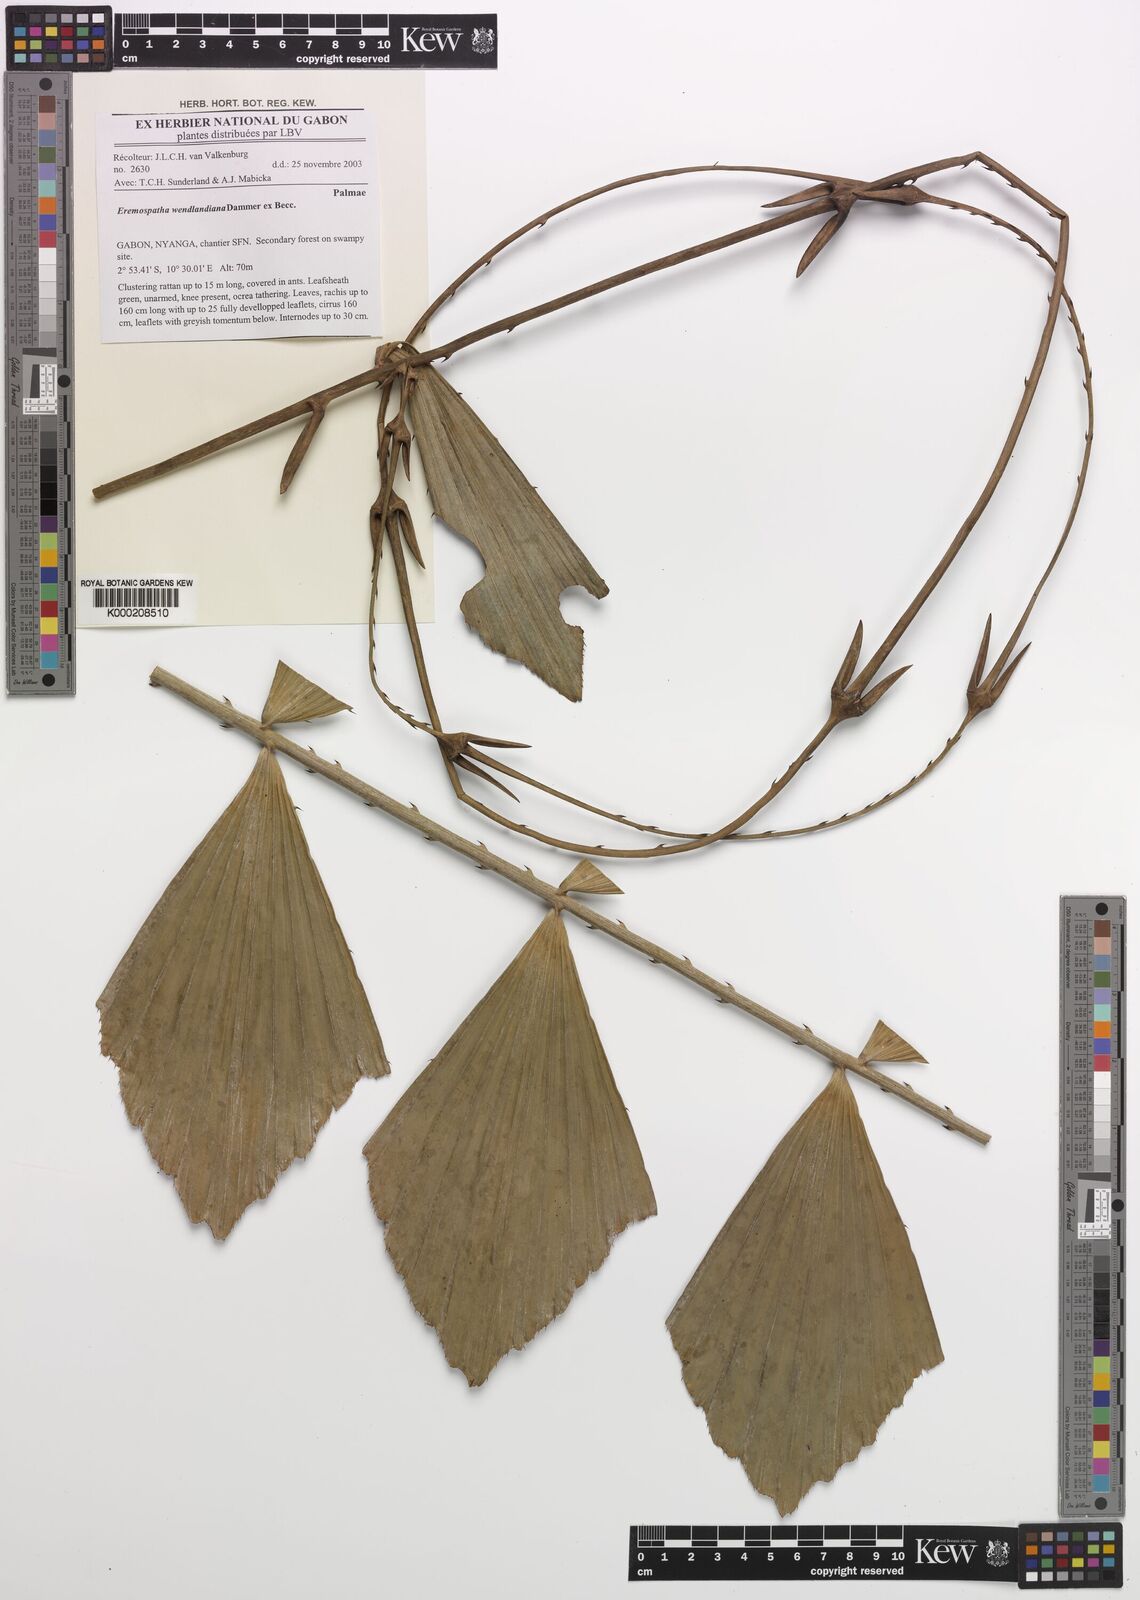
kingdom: Plantae
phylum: Tracheophyta
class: Liliopsida
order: Arecales
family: Arecaceae
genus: Eremospatha
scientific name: Eremospatha wendlandiana
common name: Rattan
